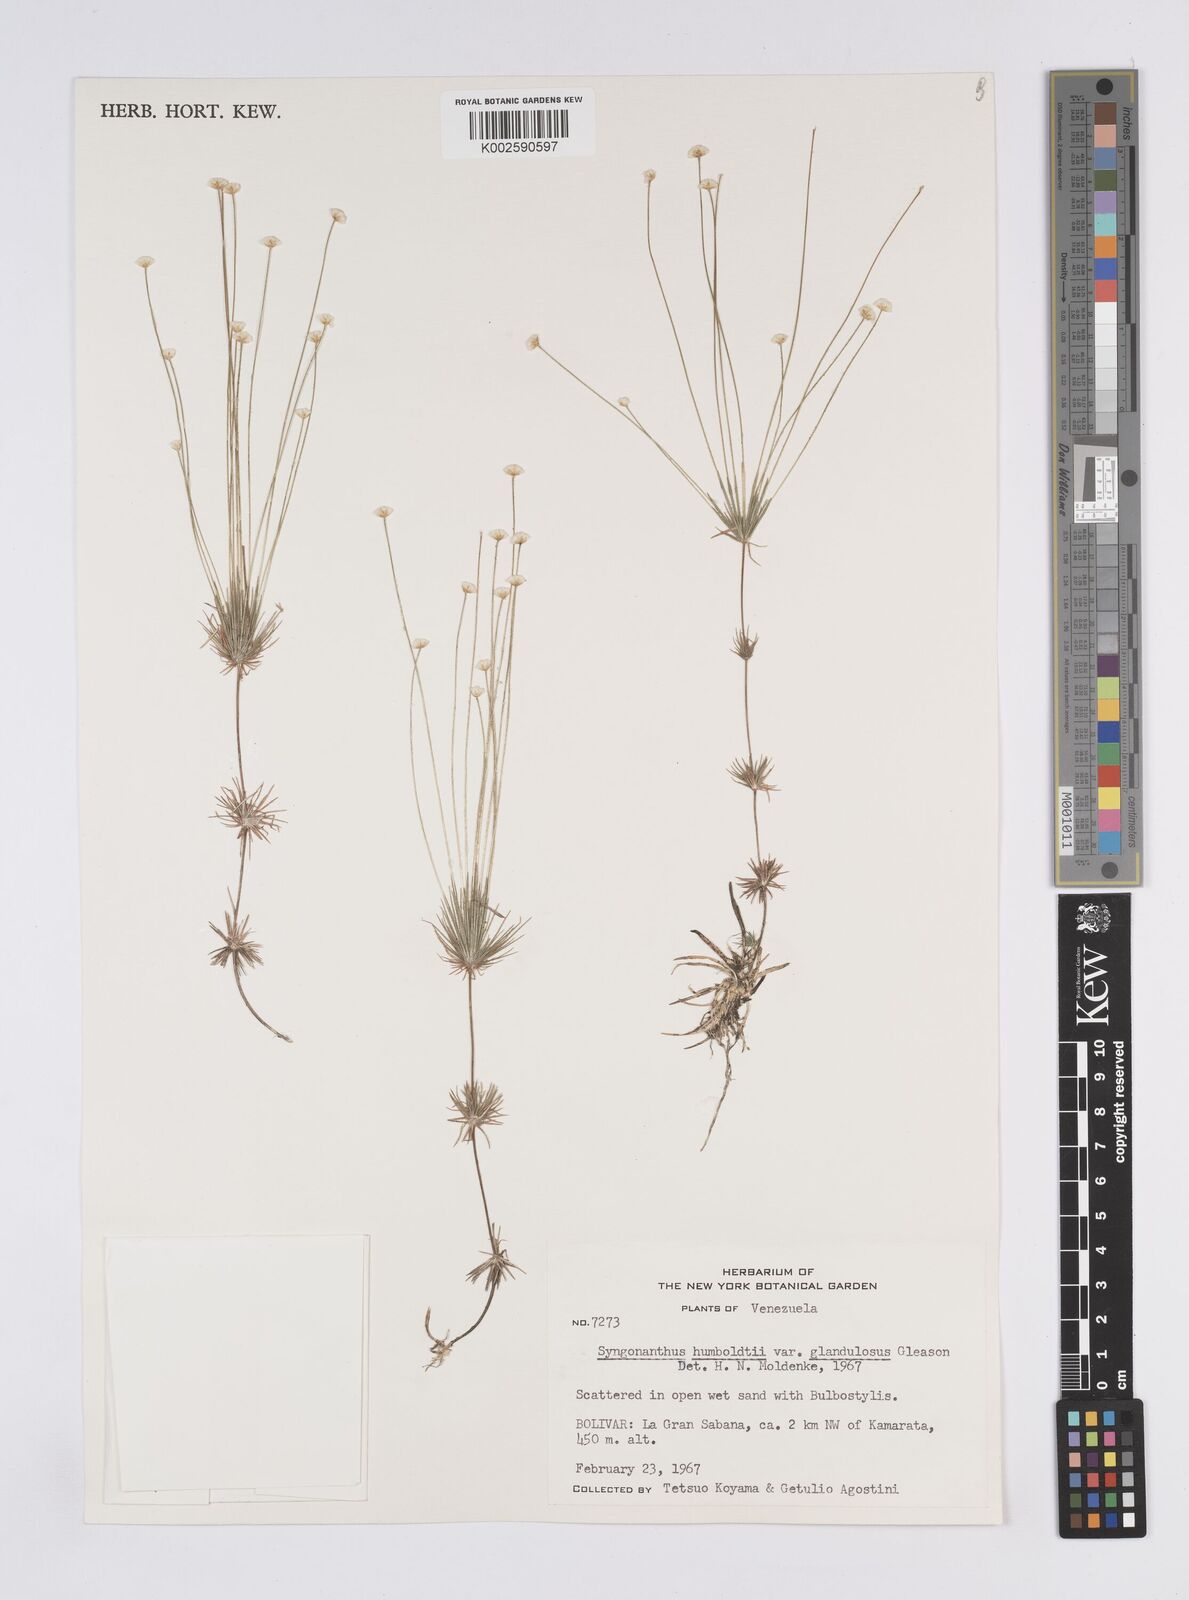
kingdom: Plantae
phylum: Tracheophyta
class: Liliopsida
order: Poales
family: Eriocaulaceae
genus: Syngonanthus
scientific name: Syngonanthus humboldtii
